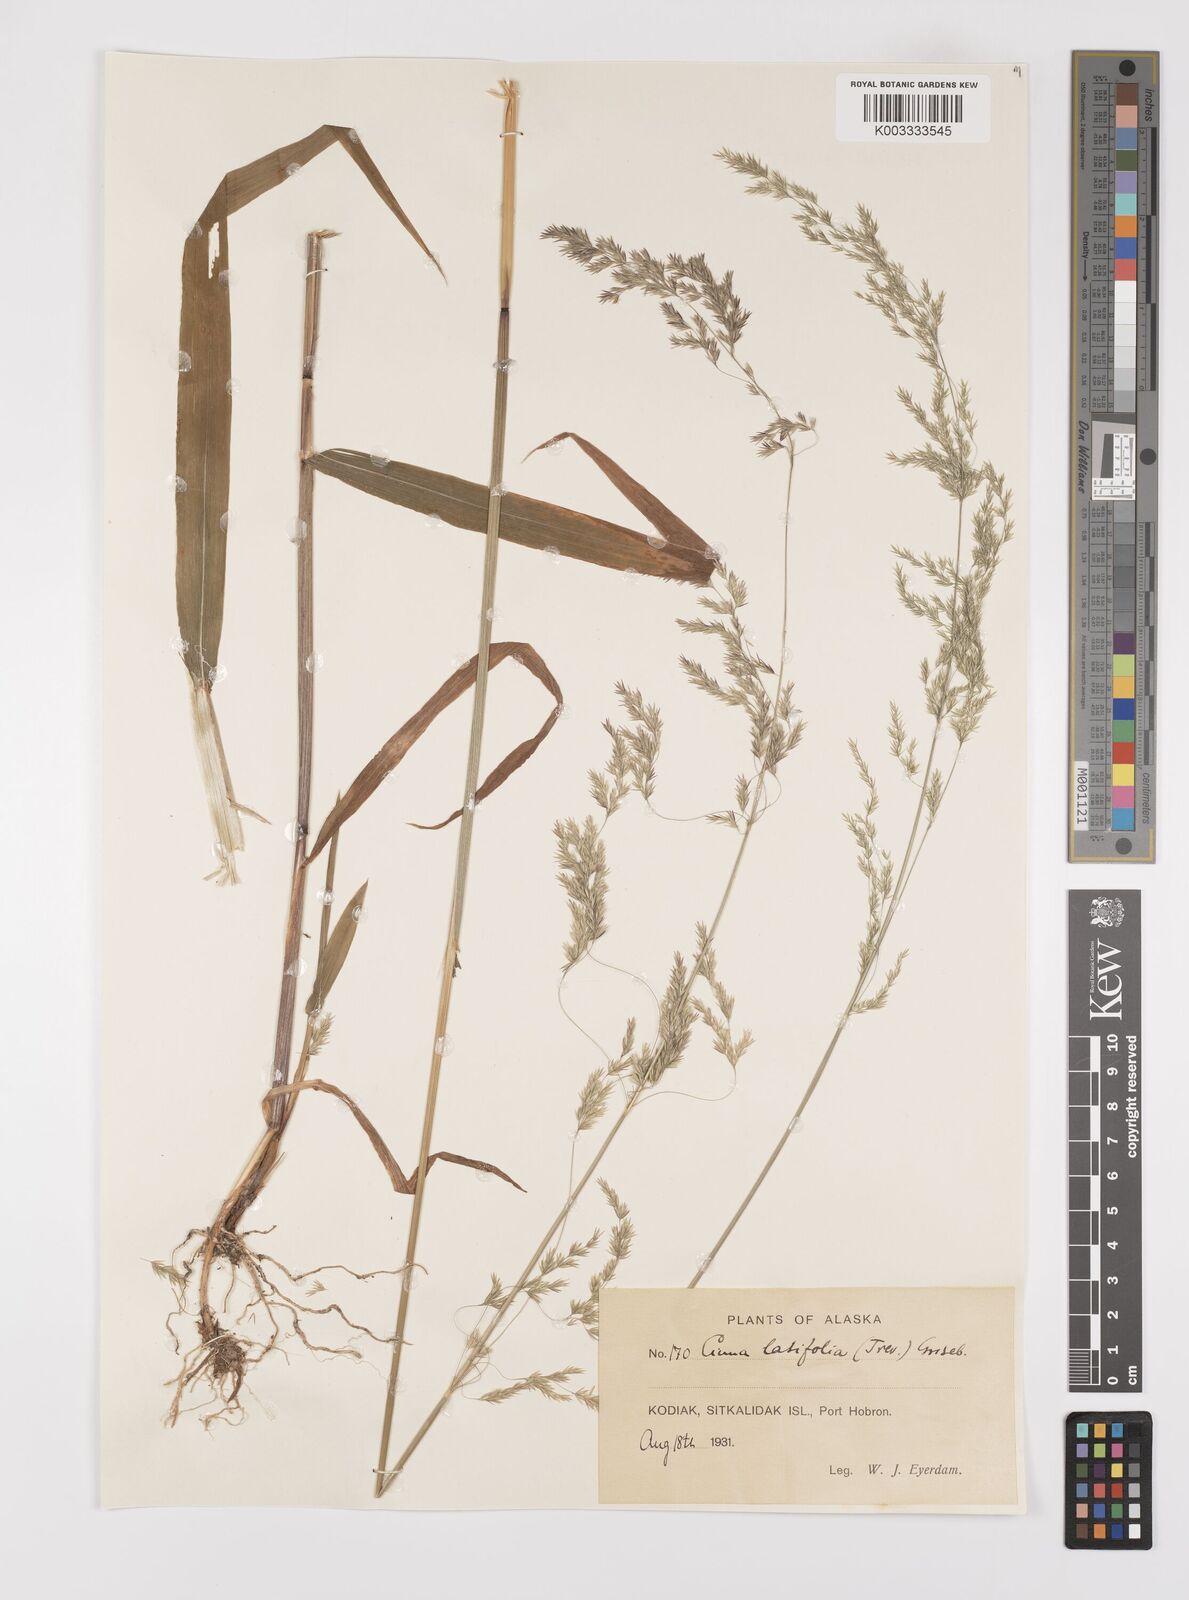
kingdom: Plantae
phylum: Tracheophyta
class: Liliopsida
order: Poales
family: Poaceae
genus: Cinna
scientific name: Cinna latifolia
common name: Drooping woodreed
